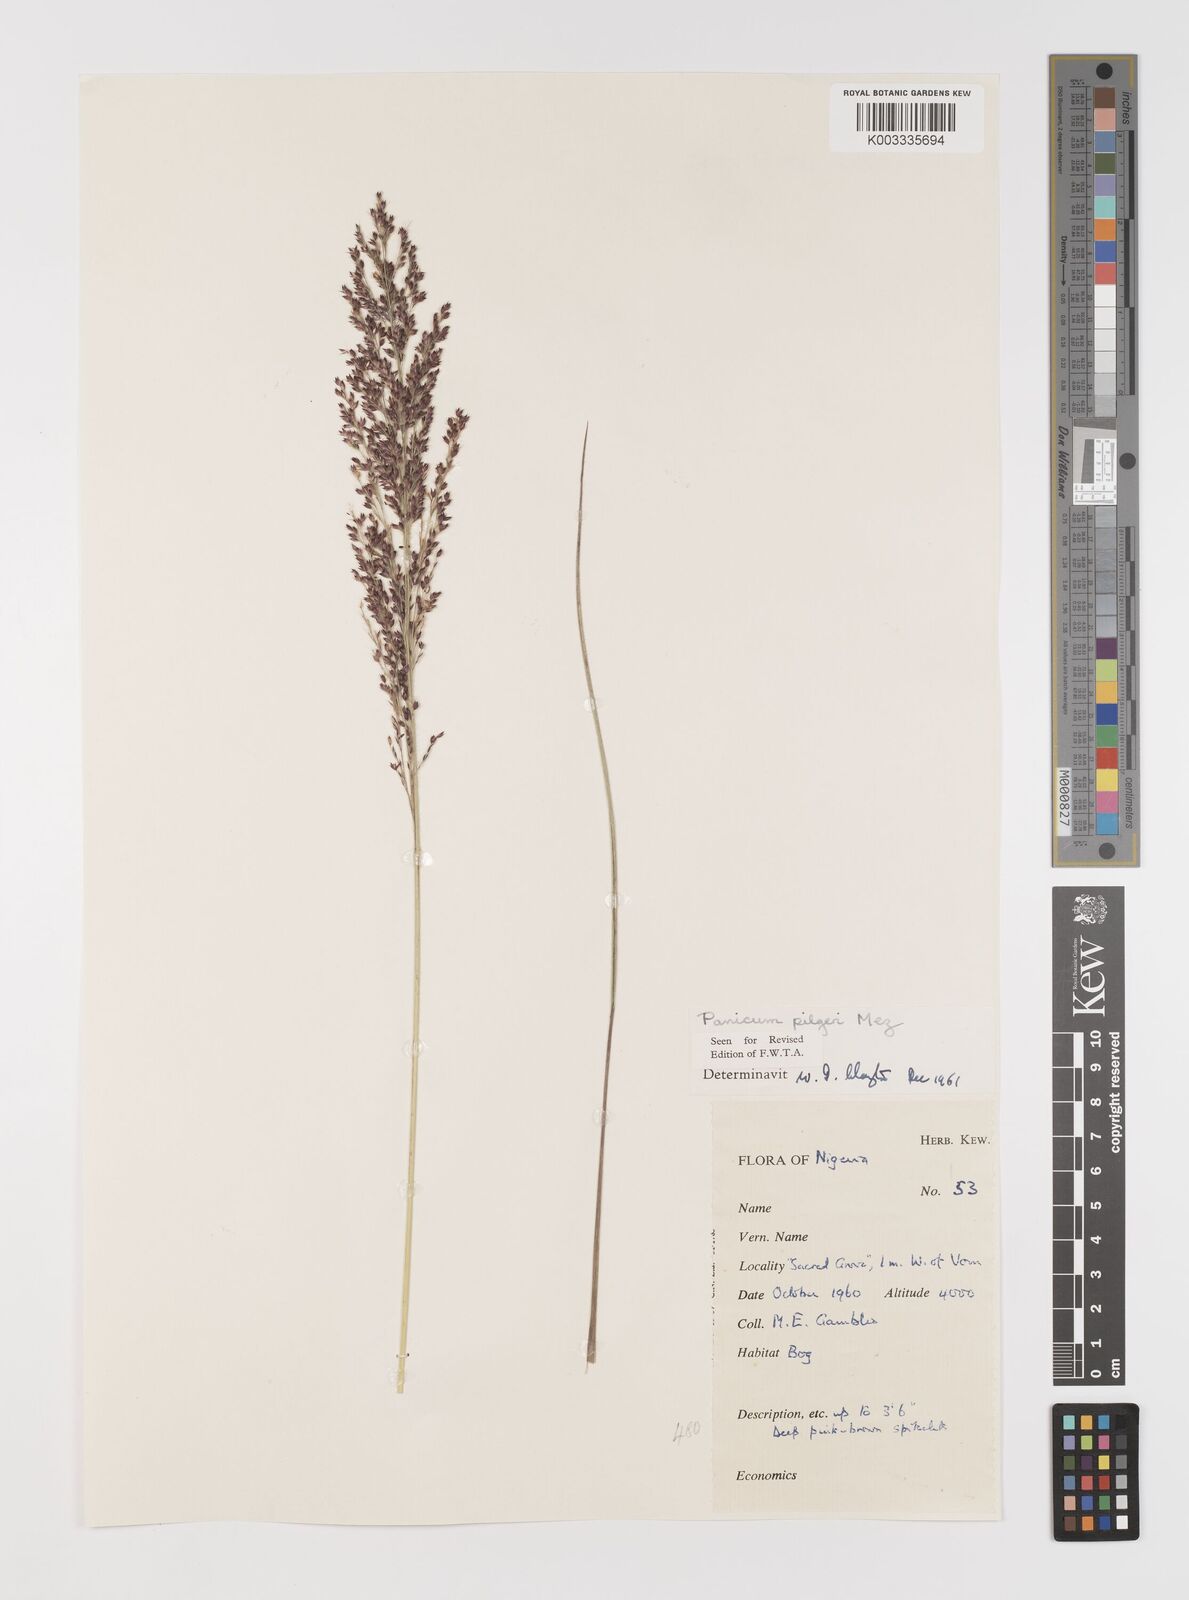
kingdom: Plantae
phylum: Tracheophyta
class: Liliopsida
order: Poales
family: Poaceae
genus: Panicum
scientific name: Panicum
